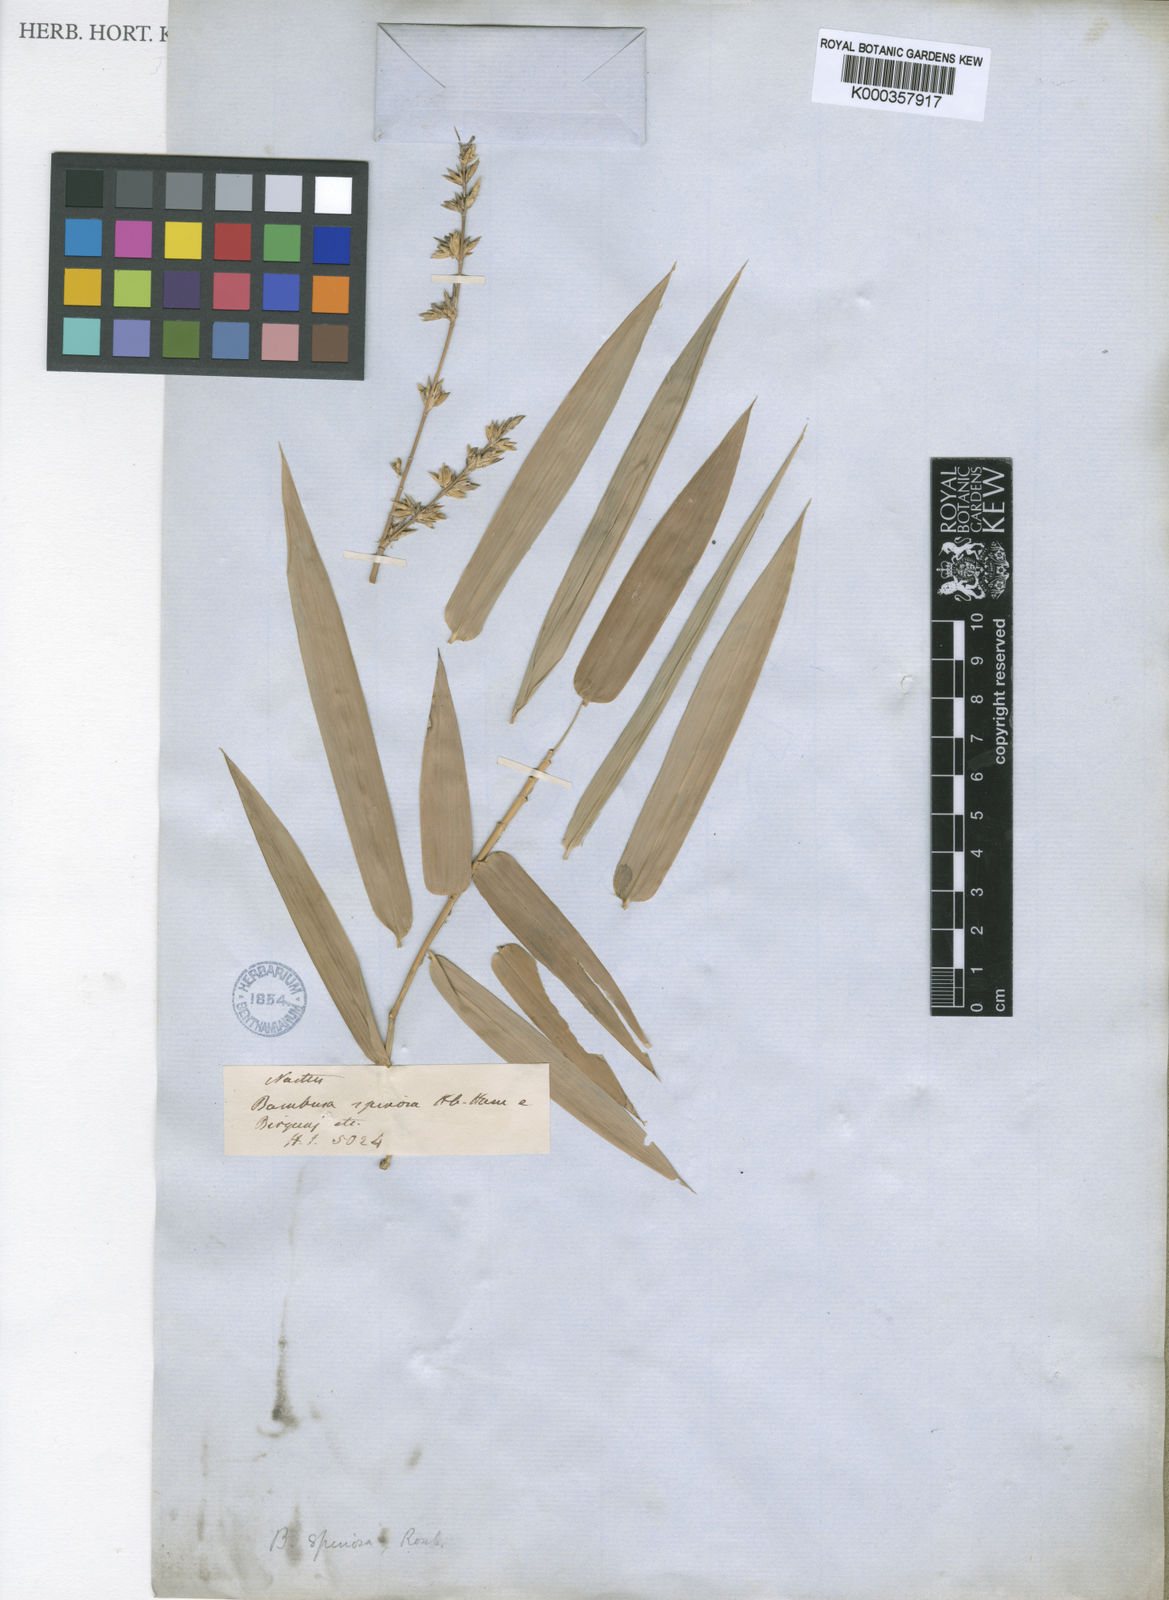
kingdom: Plantae
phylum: Tracheophyta
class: Liliopsida
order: Poales
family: Poaceae
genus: Bambusa
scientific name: Bambusa
